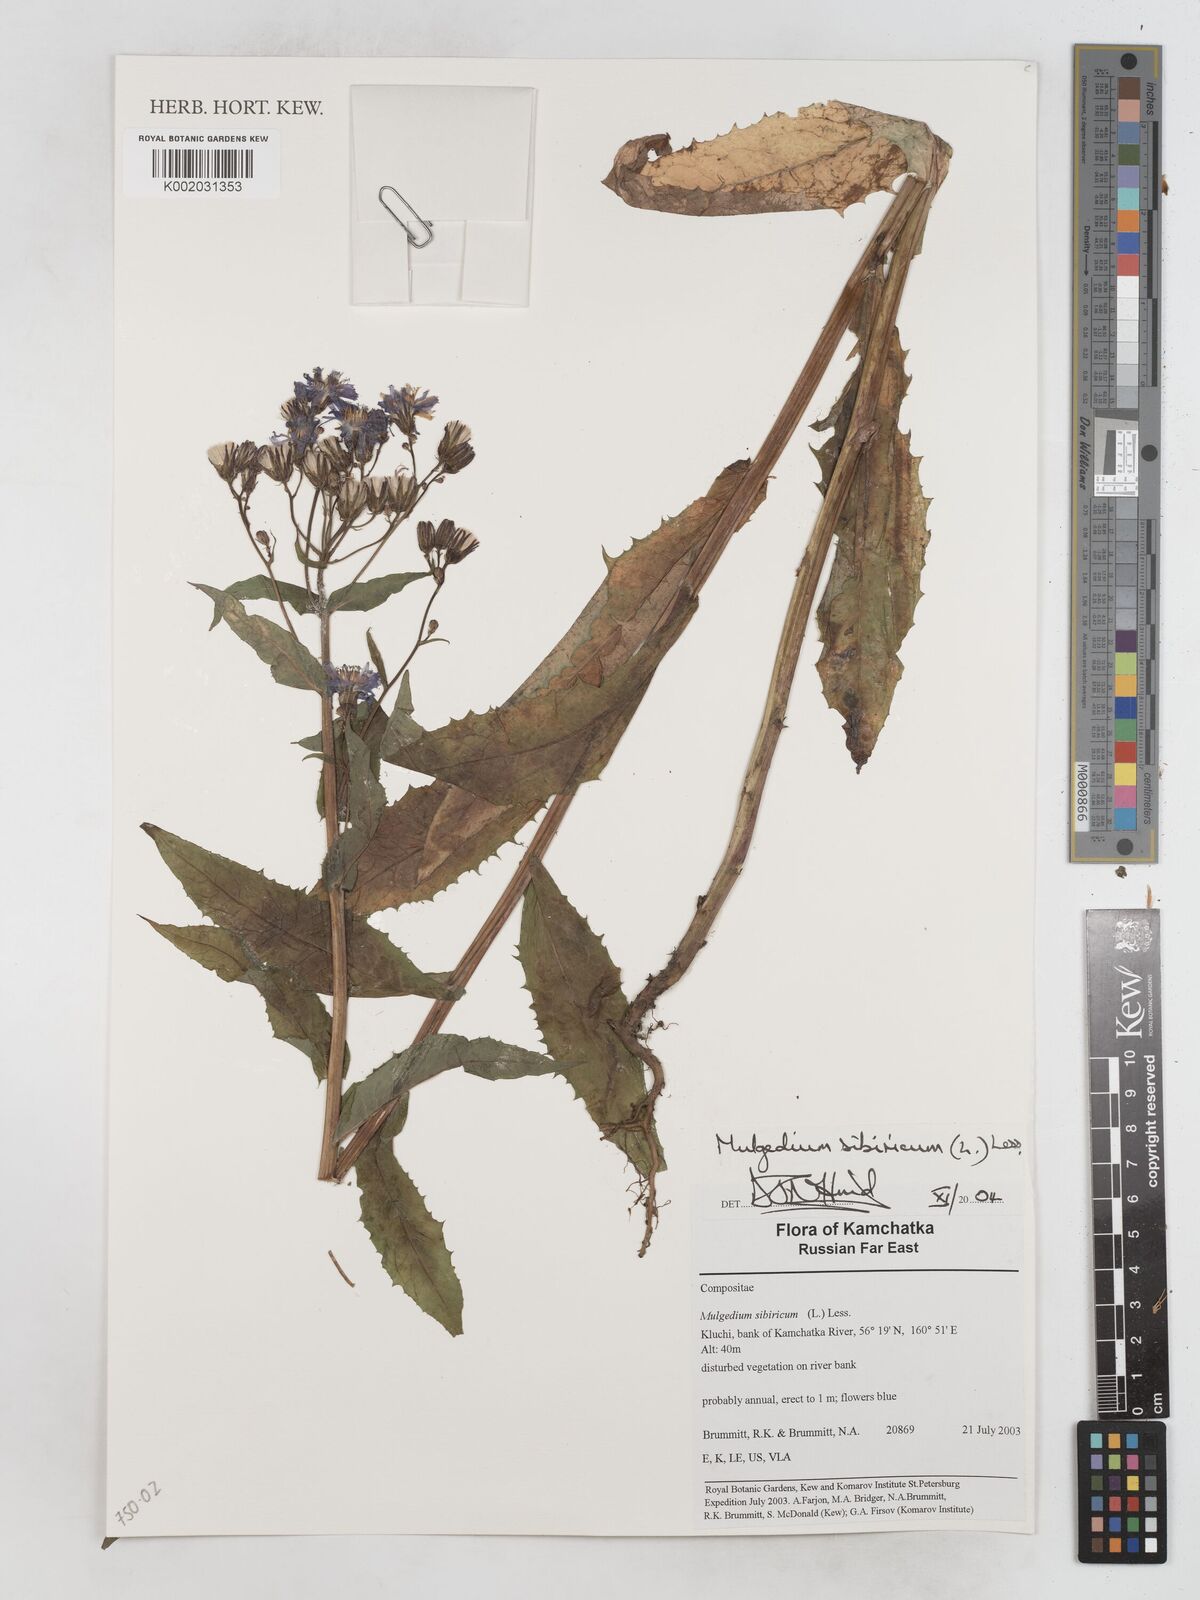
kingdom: Plantae
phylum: Tracheophyta
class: Magnoliopsida
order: Asterales
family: Asteraceae
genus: Lactuca
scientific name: Lactuca sibirica
